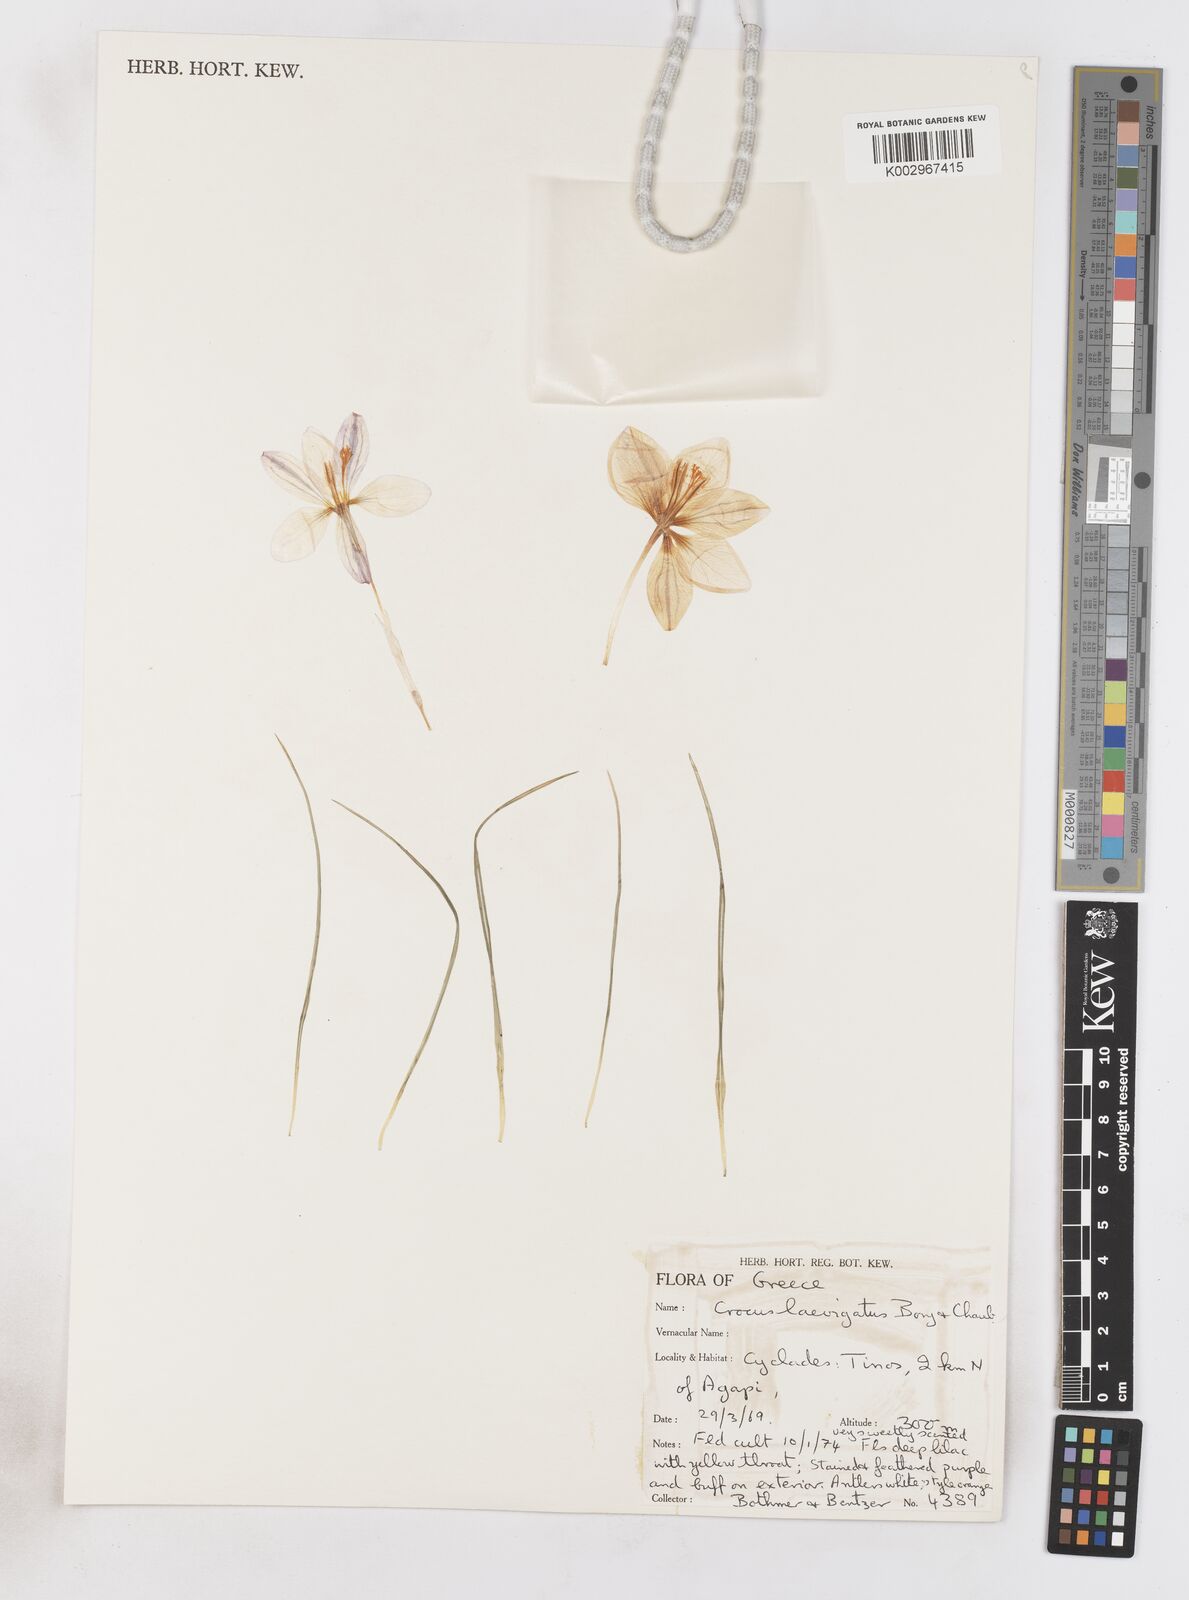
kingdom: Plantae
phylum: Tracheophyta
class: Liliopsida
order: Asparagales
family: Iridaceae
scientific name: Iridaceae
